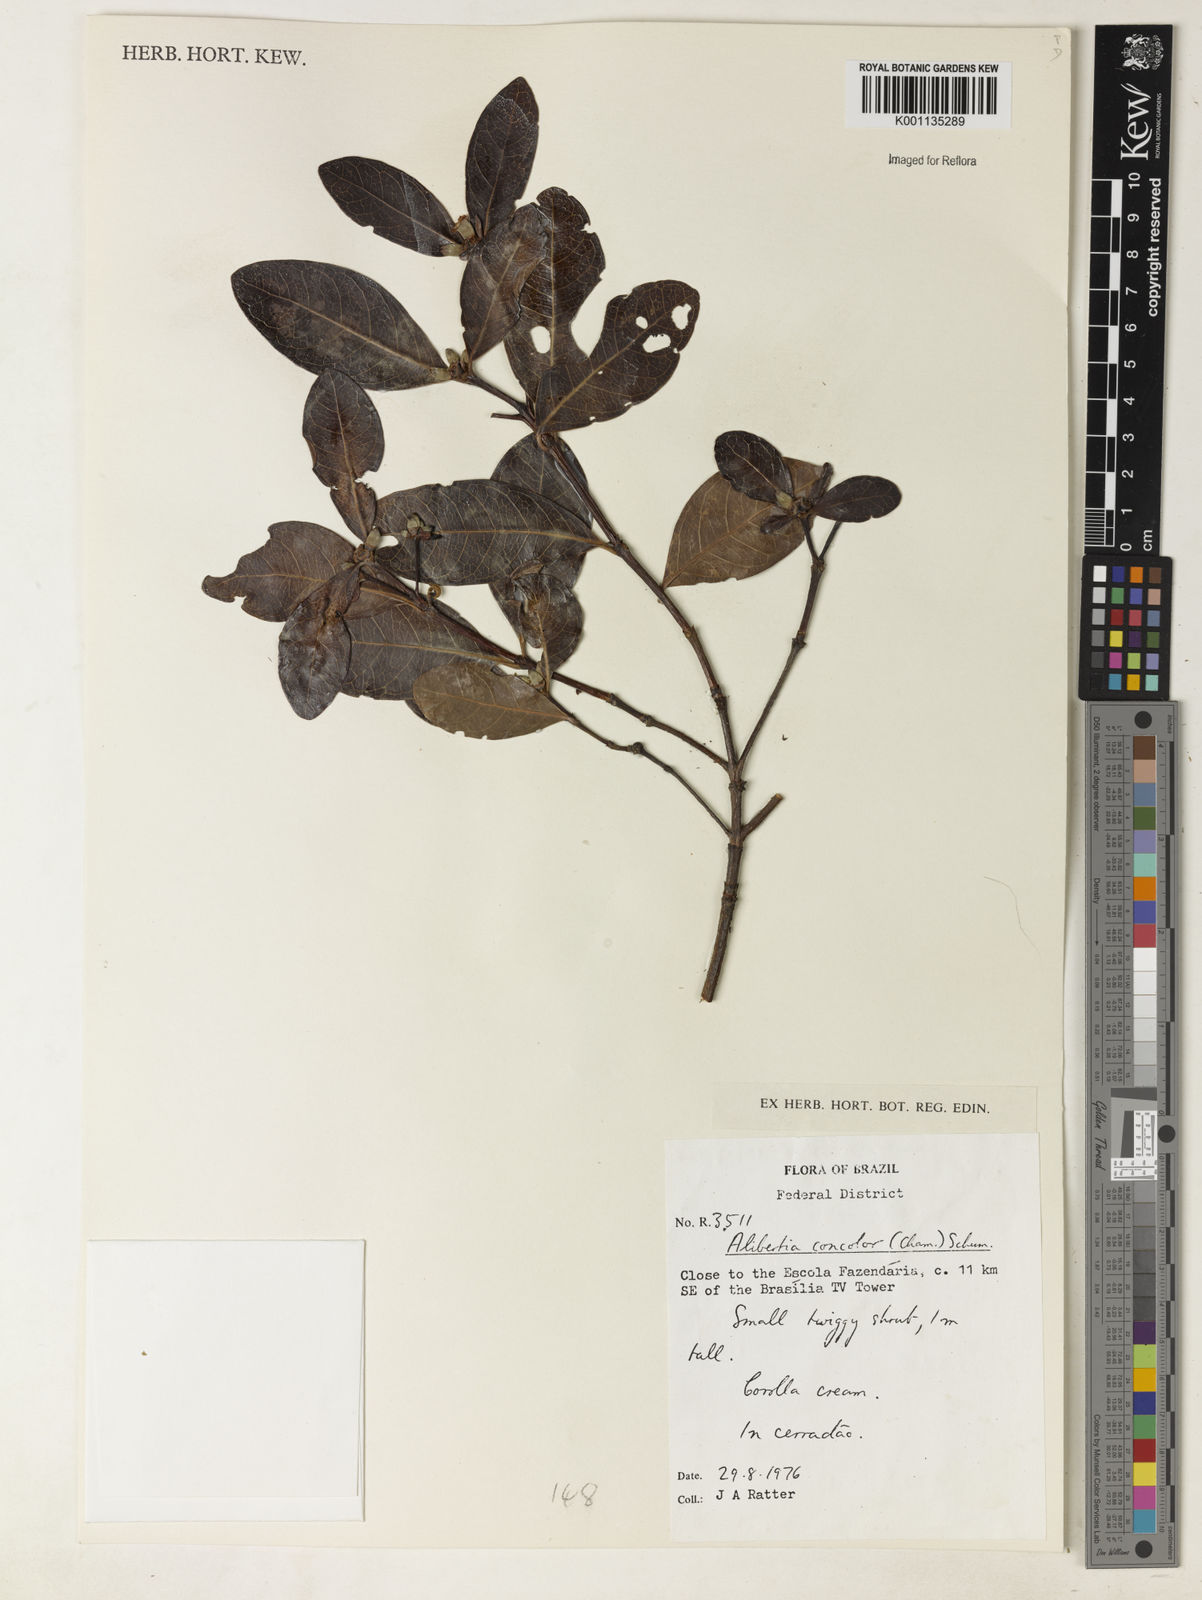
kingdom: Plantae
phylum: Tracheophyta
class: Magnoliopsida
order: Gentianales
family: Rubiaceae
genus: Cordiera
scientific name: Cordiera concolor
